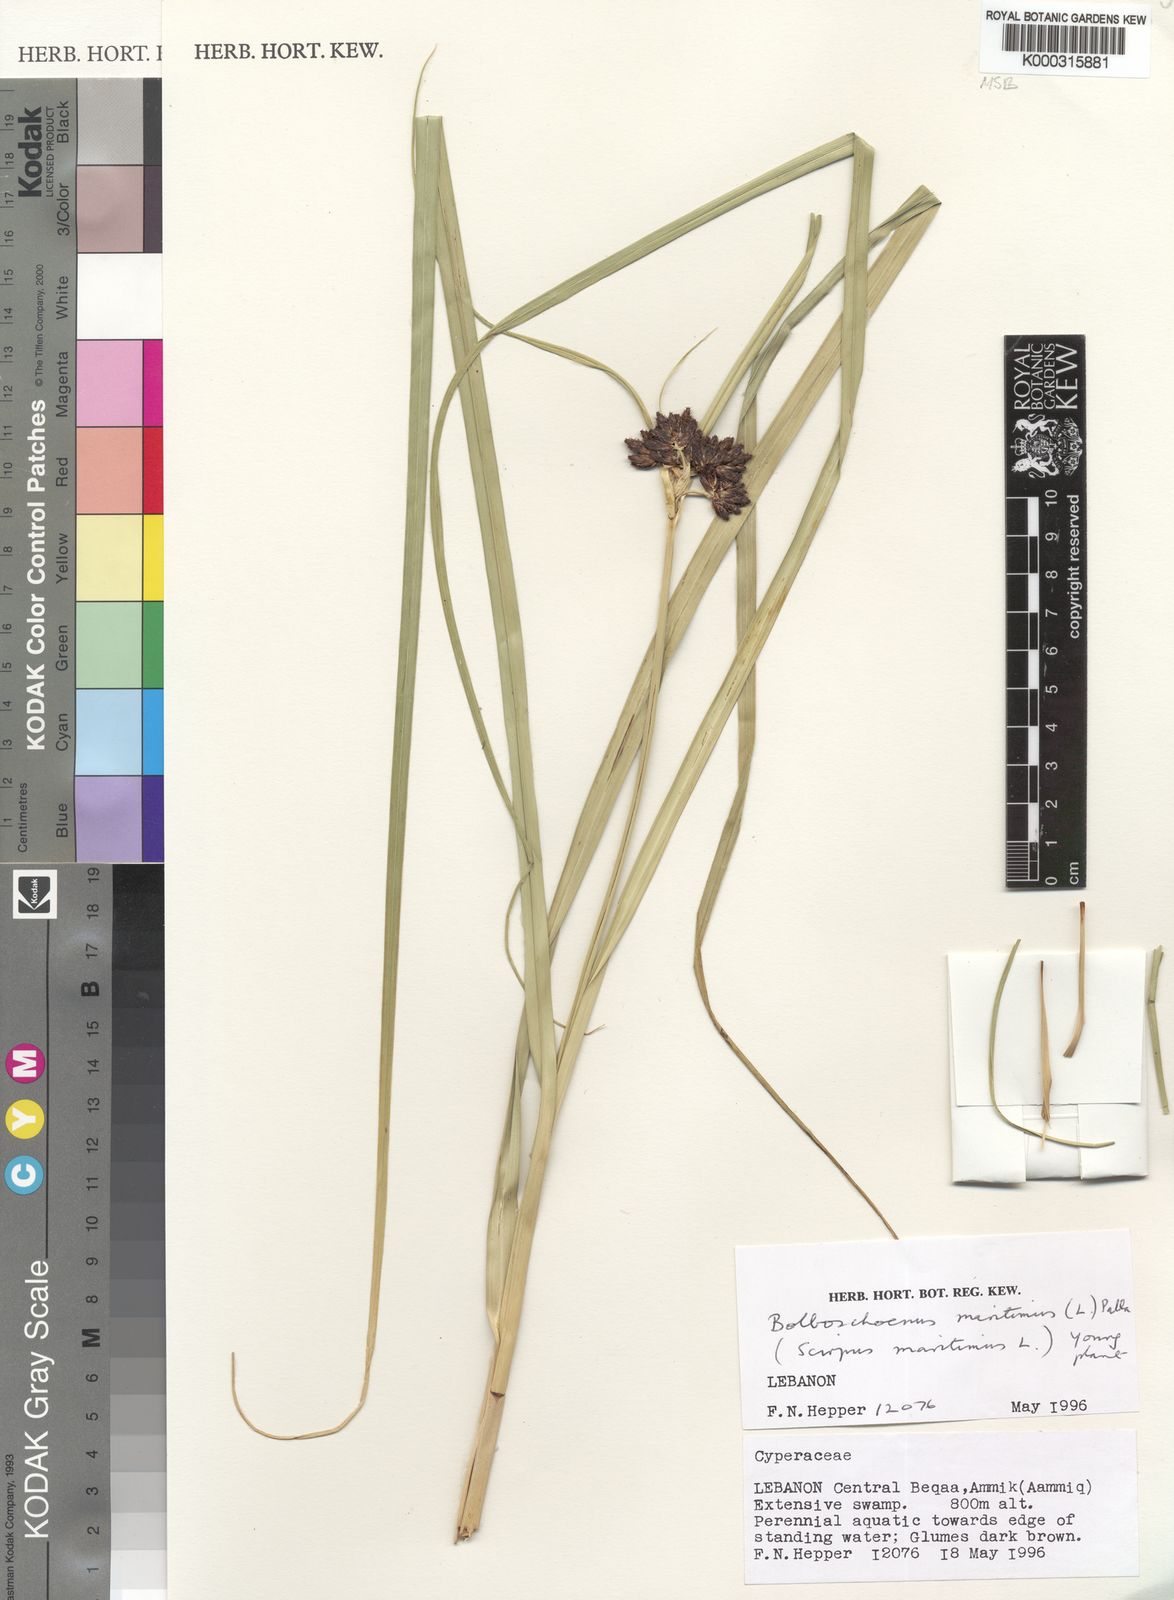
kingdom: Plantae
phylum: Tracheophyta
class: Liliopsida
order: Poales
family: Cyperaceae
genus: Bolboschoenus
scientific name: Bolboschoenus maritimus
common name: Sea club-rush
